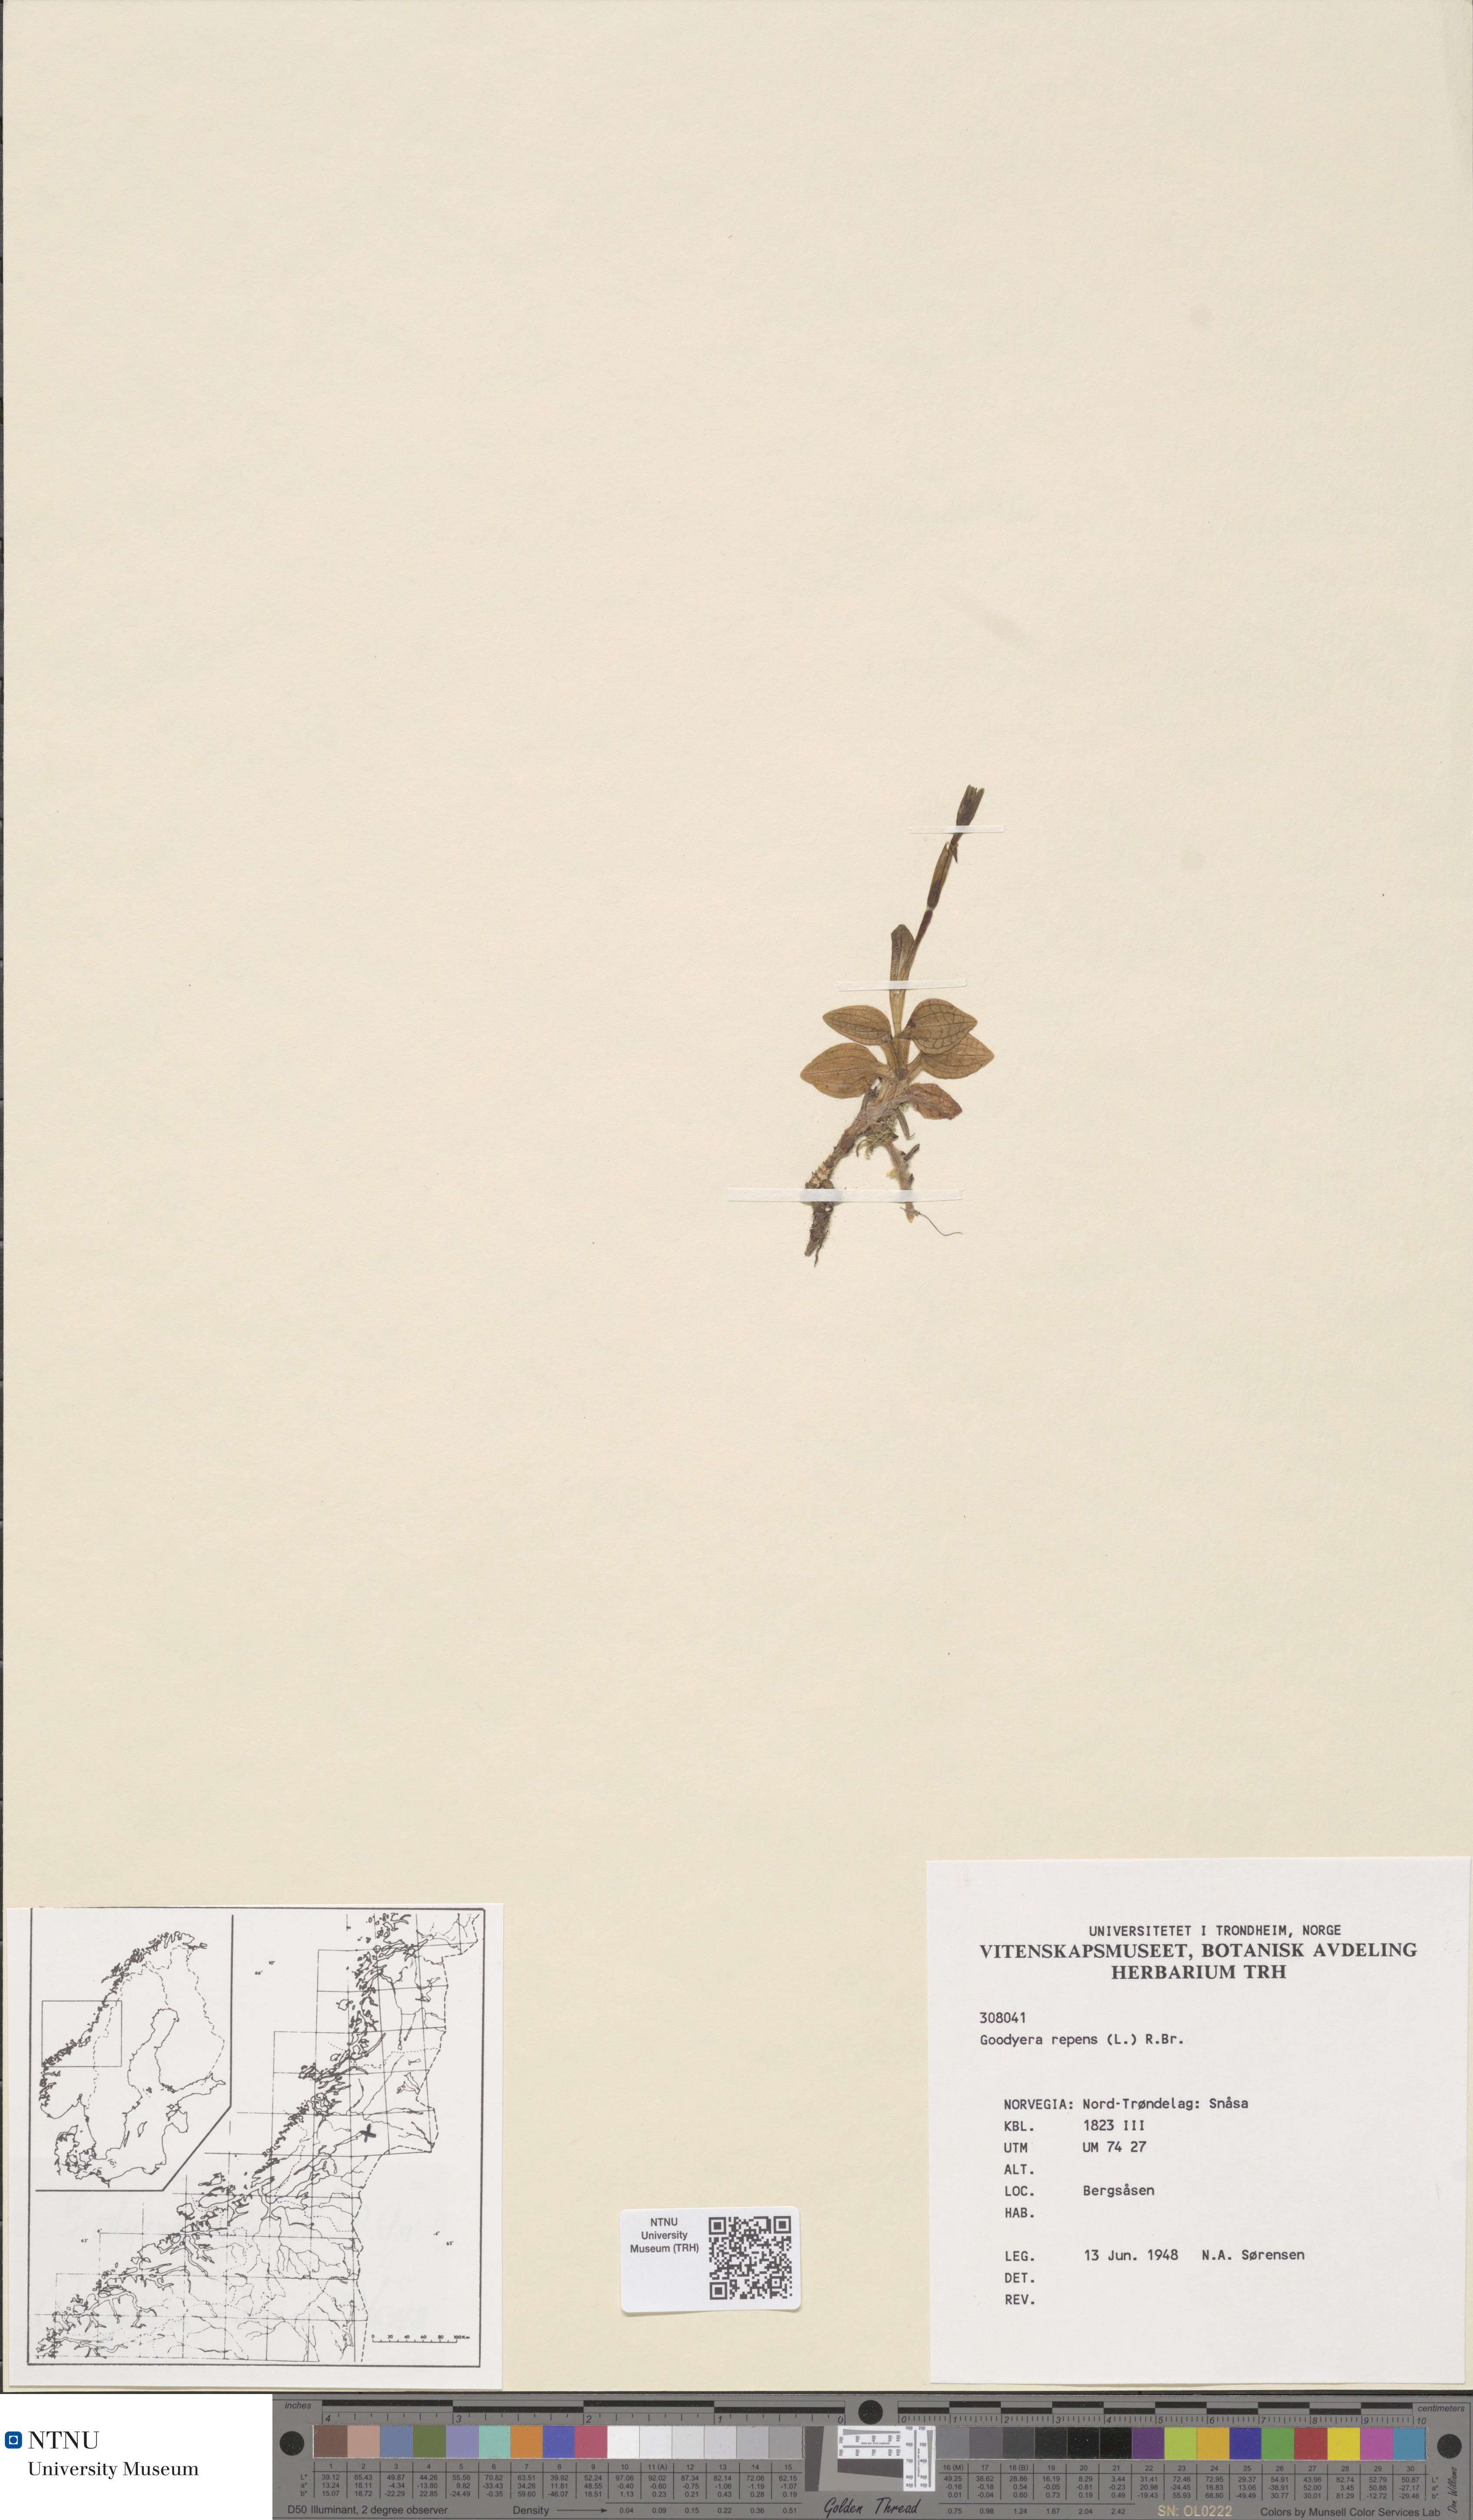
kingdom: Plantae
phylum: Tracheophyta
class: Liliopsida
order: Asparagales
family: Orchidaceae
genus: Goodyera
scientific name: Goodyera repens
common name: Creeping lady's-tresses
